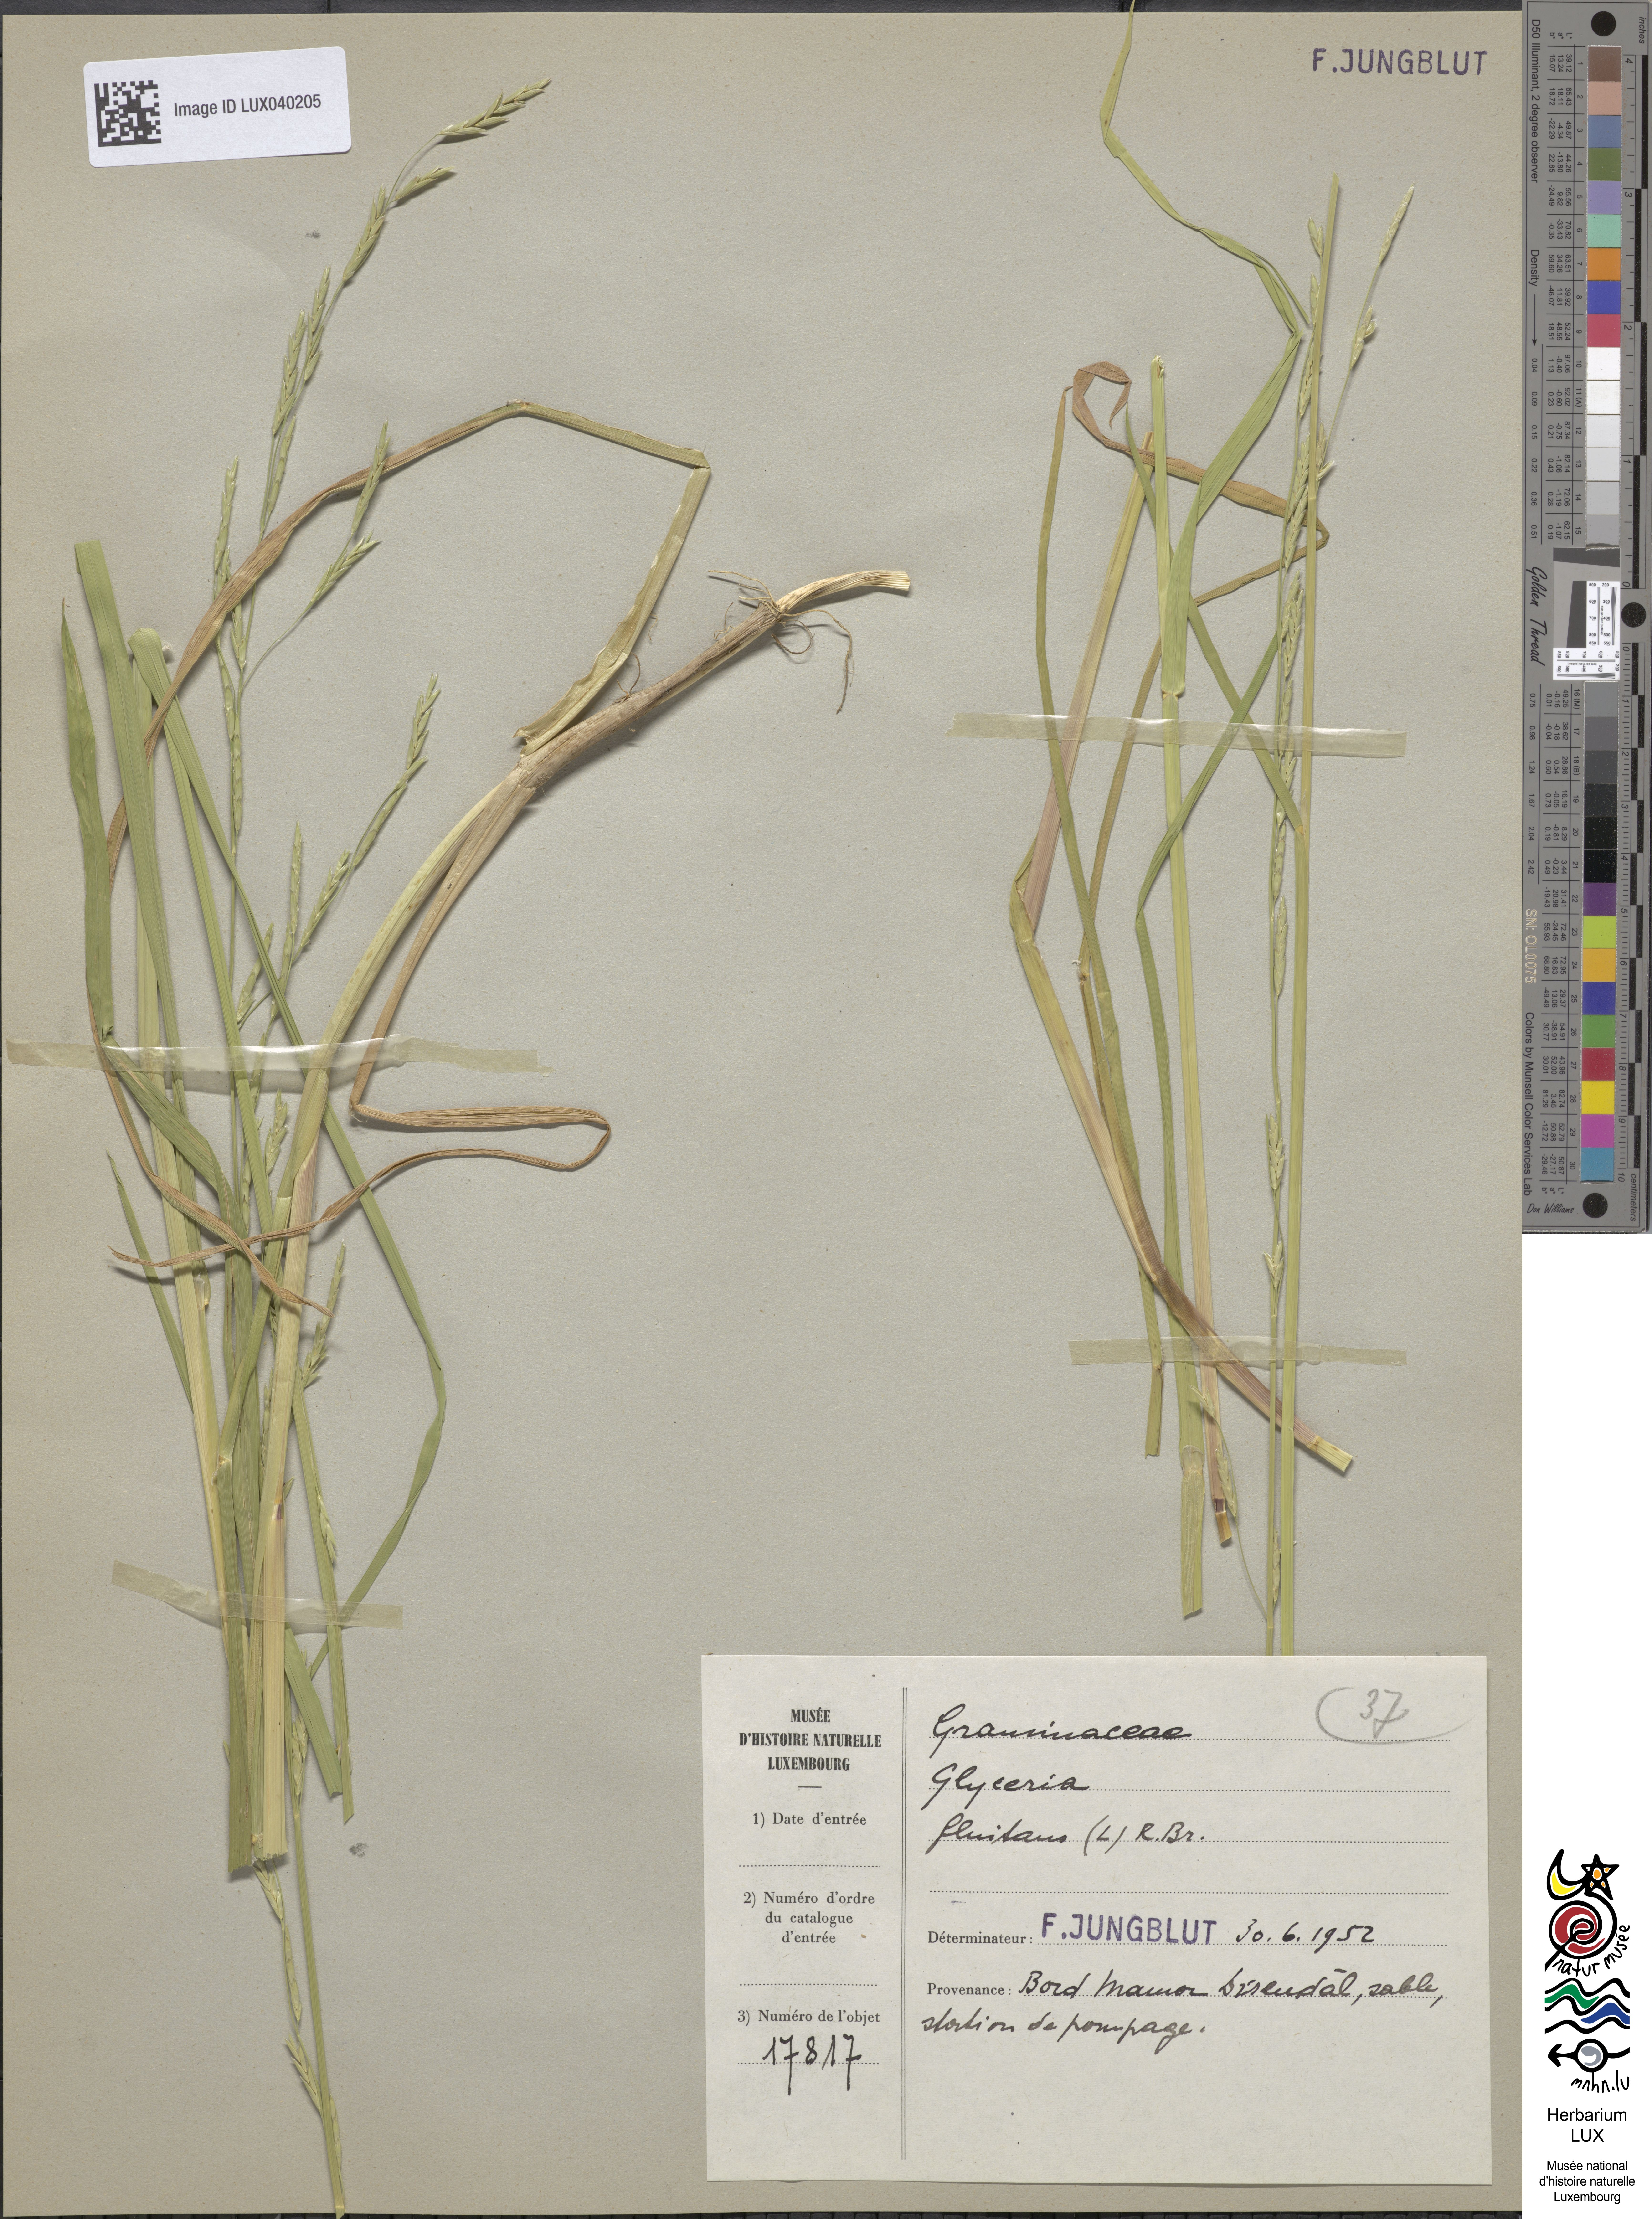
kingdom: Plantae
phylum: Tracheophyta
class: Liliopsida
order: Poales
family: Poaceae
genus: Glyceria
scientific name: Glyceria fluitans
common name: Floating sweet-grass
